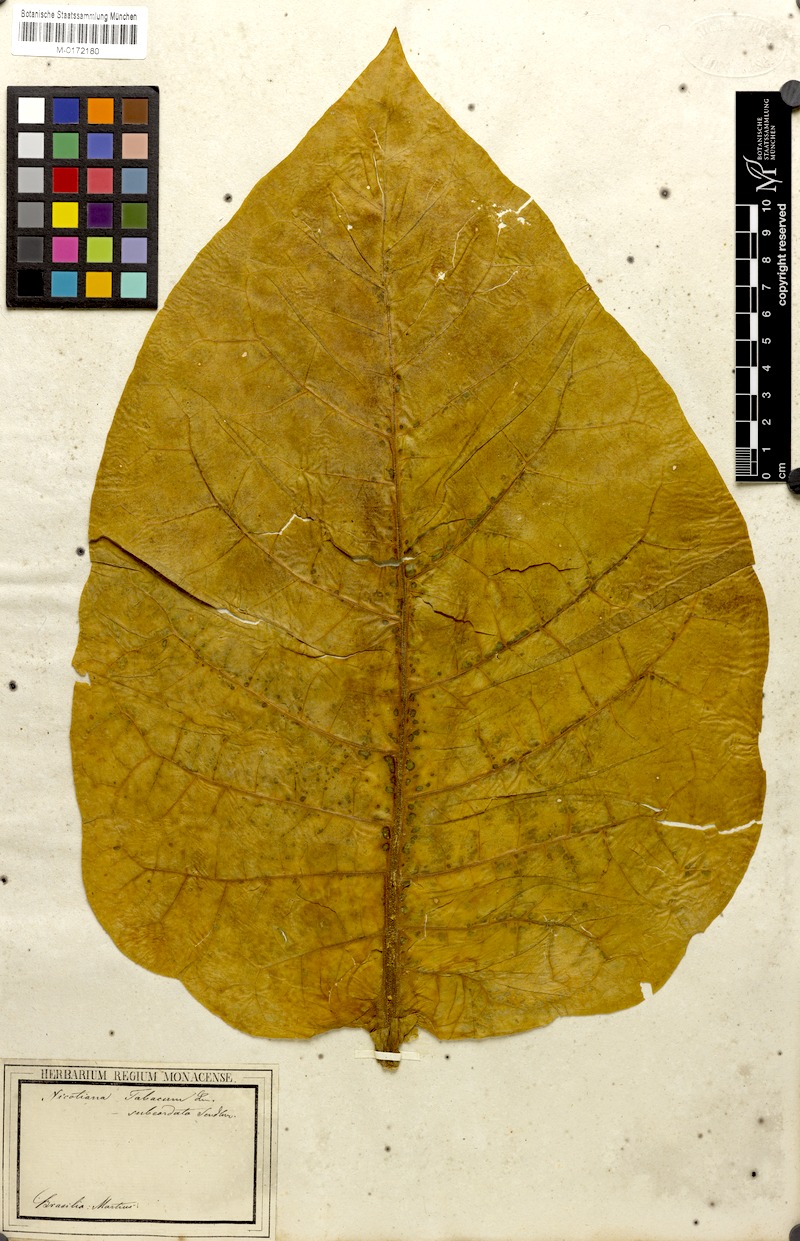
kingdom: Plantae
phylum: Tracheophyta
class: Magnoliopsida
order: Solanales
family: Solanaceae
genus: Nicotiana
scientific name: Nicotiana tabacum
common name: Tobacco
